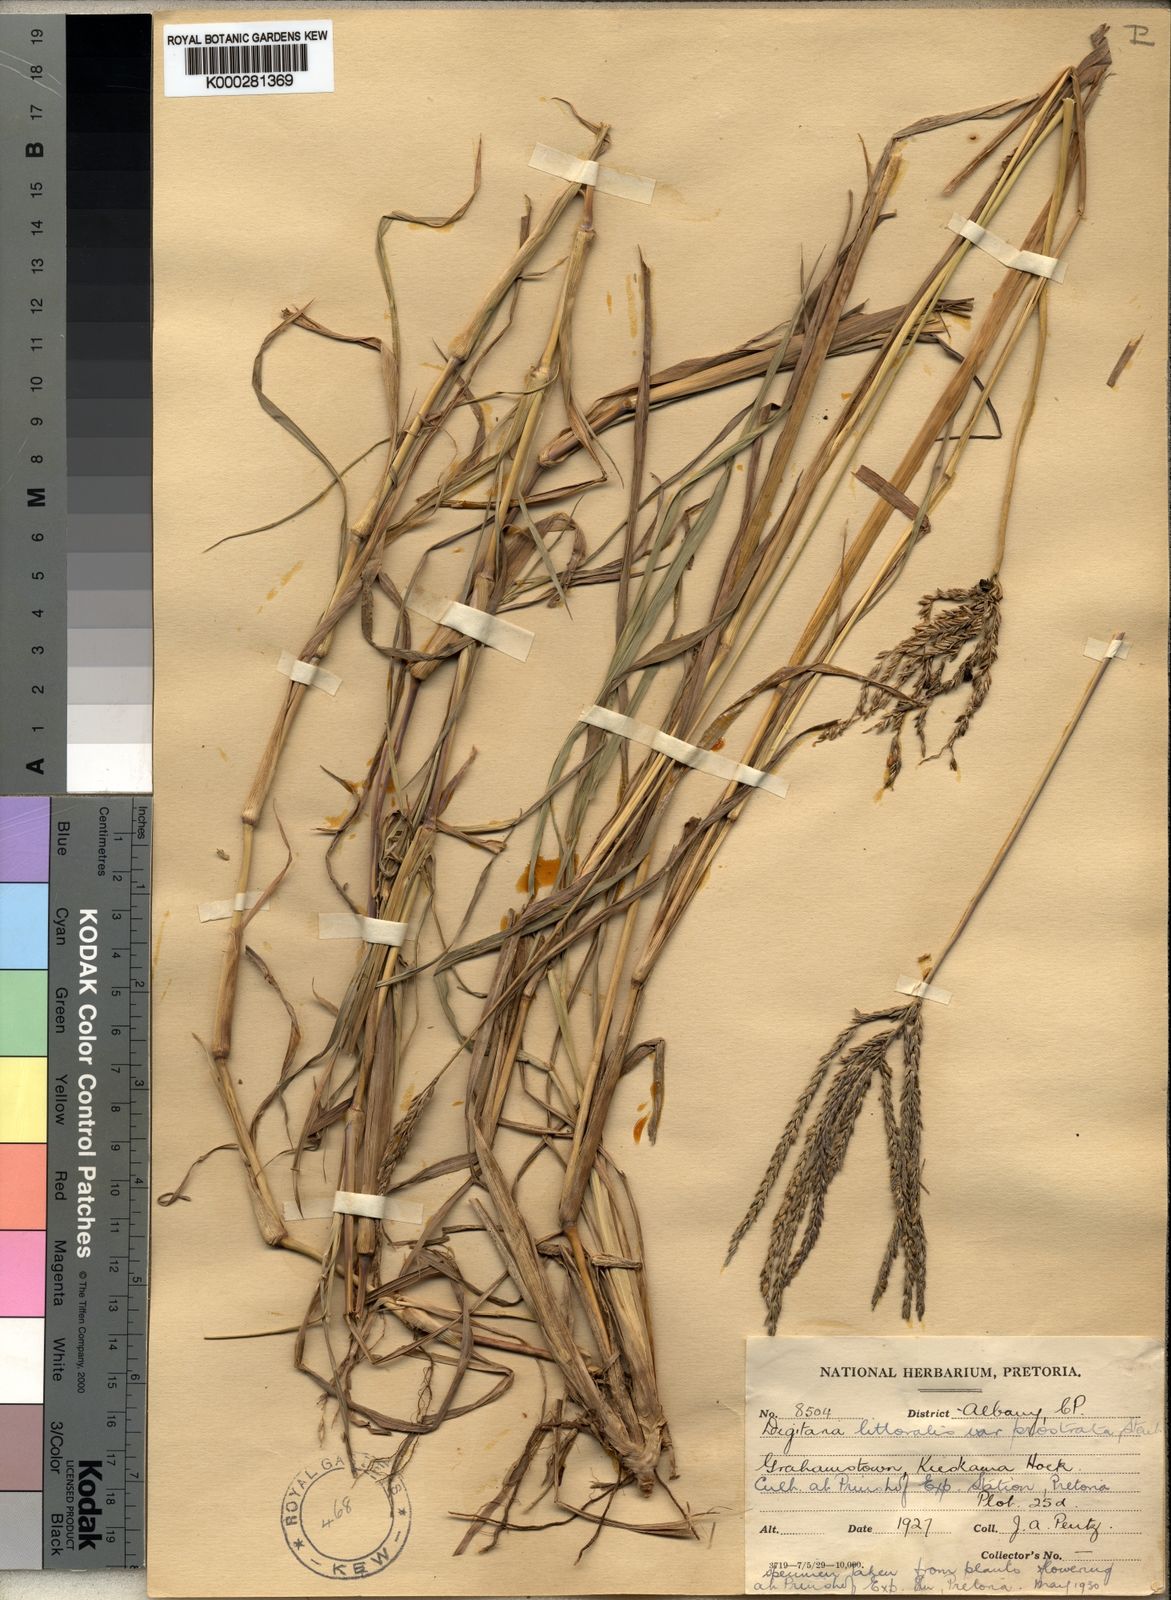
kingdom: Plantae
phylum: Tracheophyta
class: Liliopsida
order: Poales
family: Poaceae
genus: Digitaria
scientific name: Digitaria natalensis
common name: Coast finger grass
